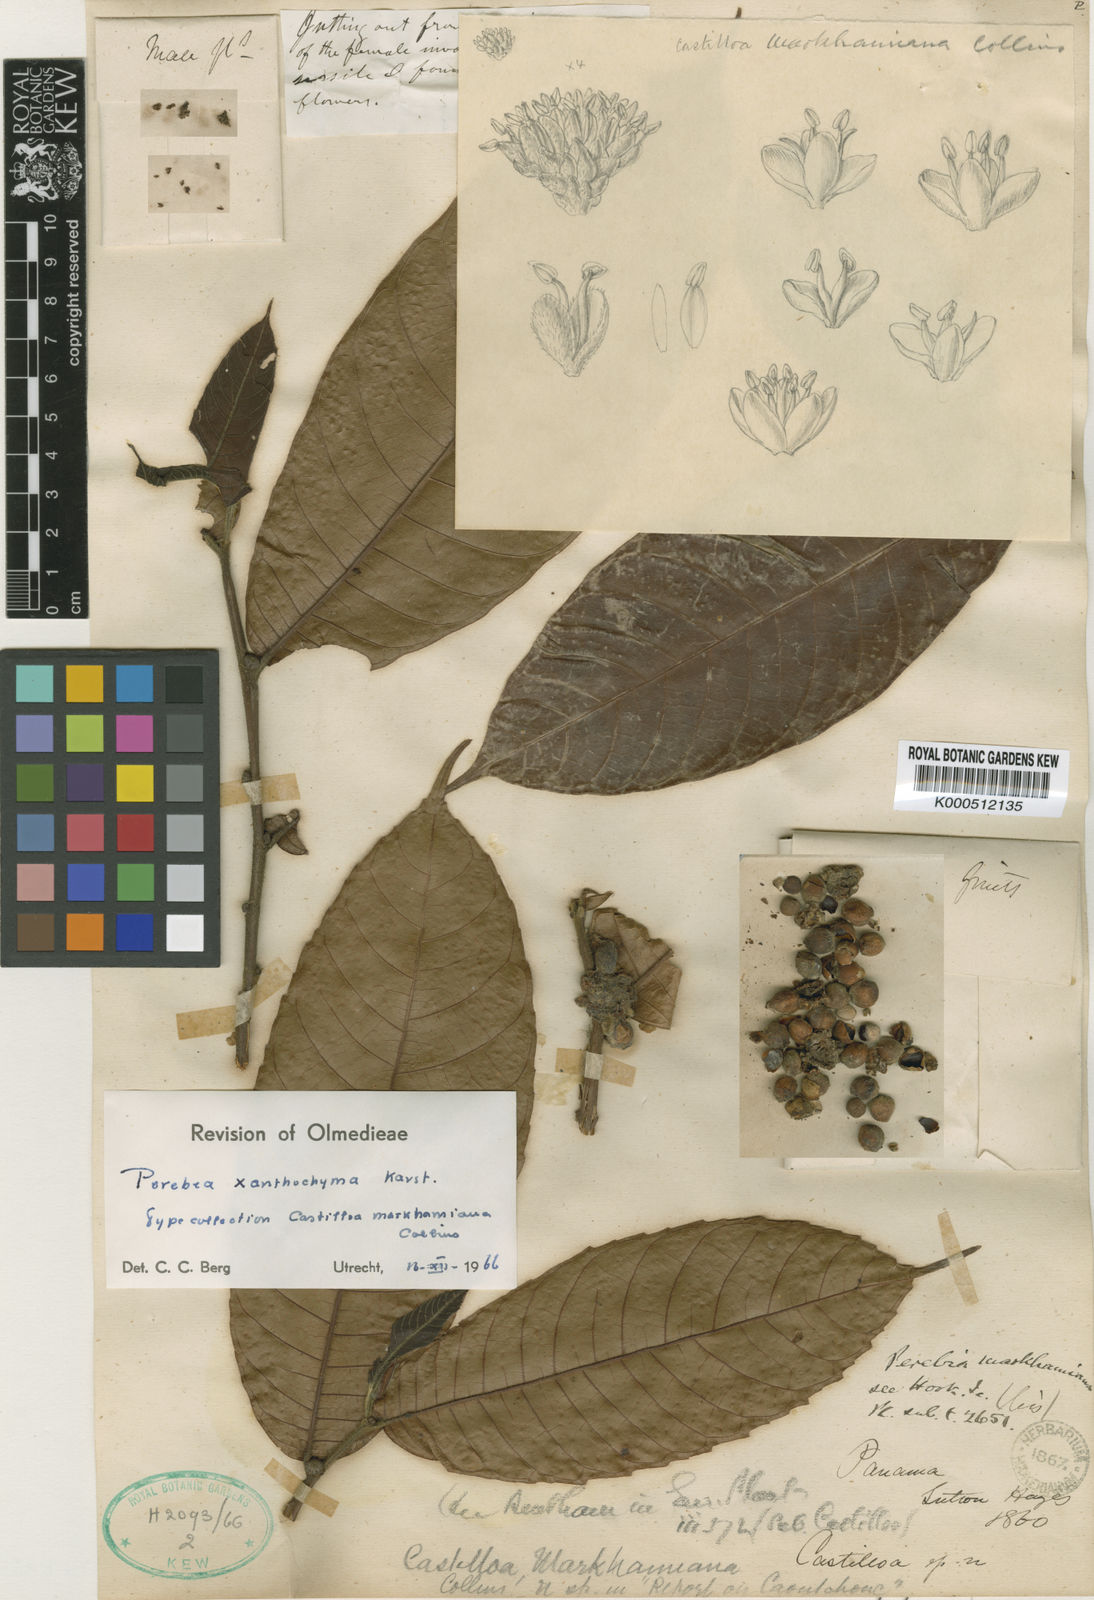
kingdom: Plantae
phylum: Tracheophyta
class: Magnoliopsida
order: Rosales
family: Moraceae
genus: Perebea
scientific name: Perebea xanthochyma
